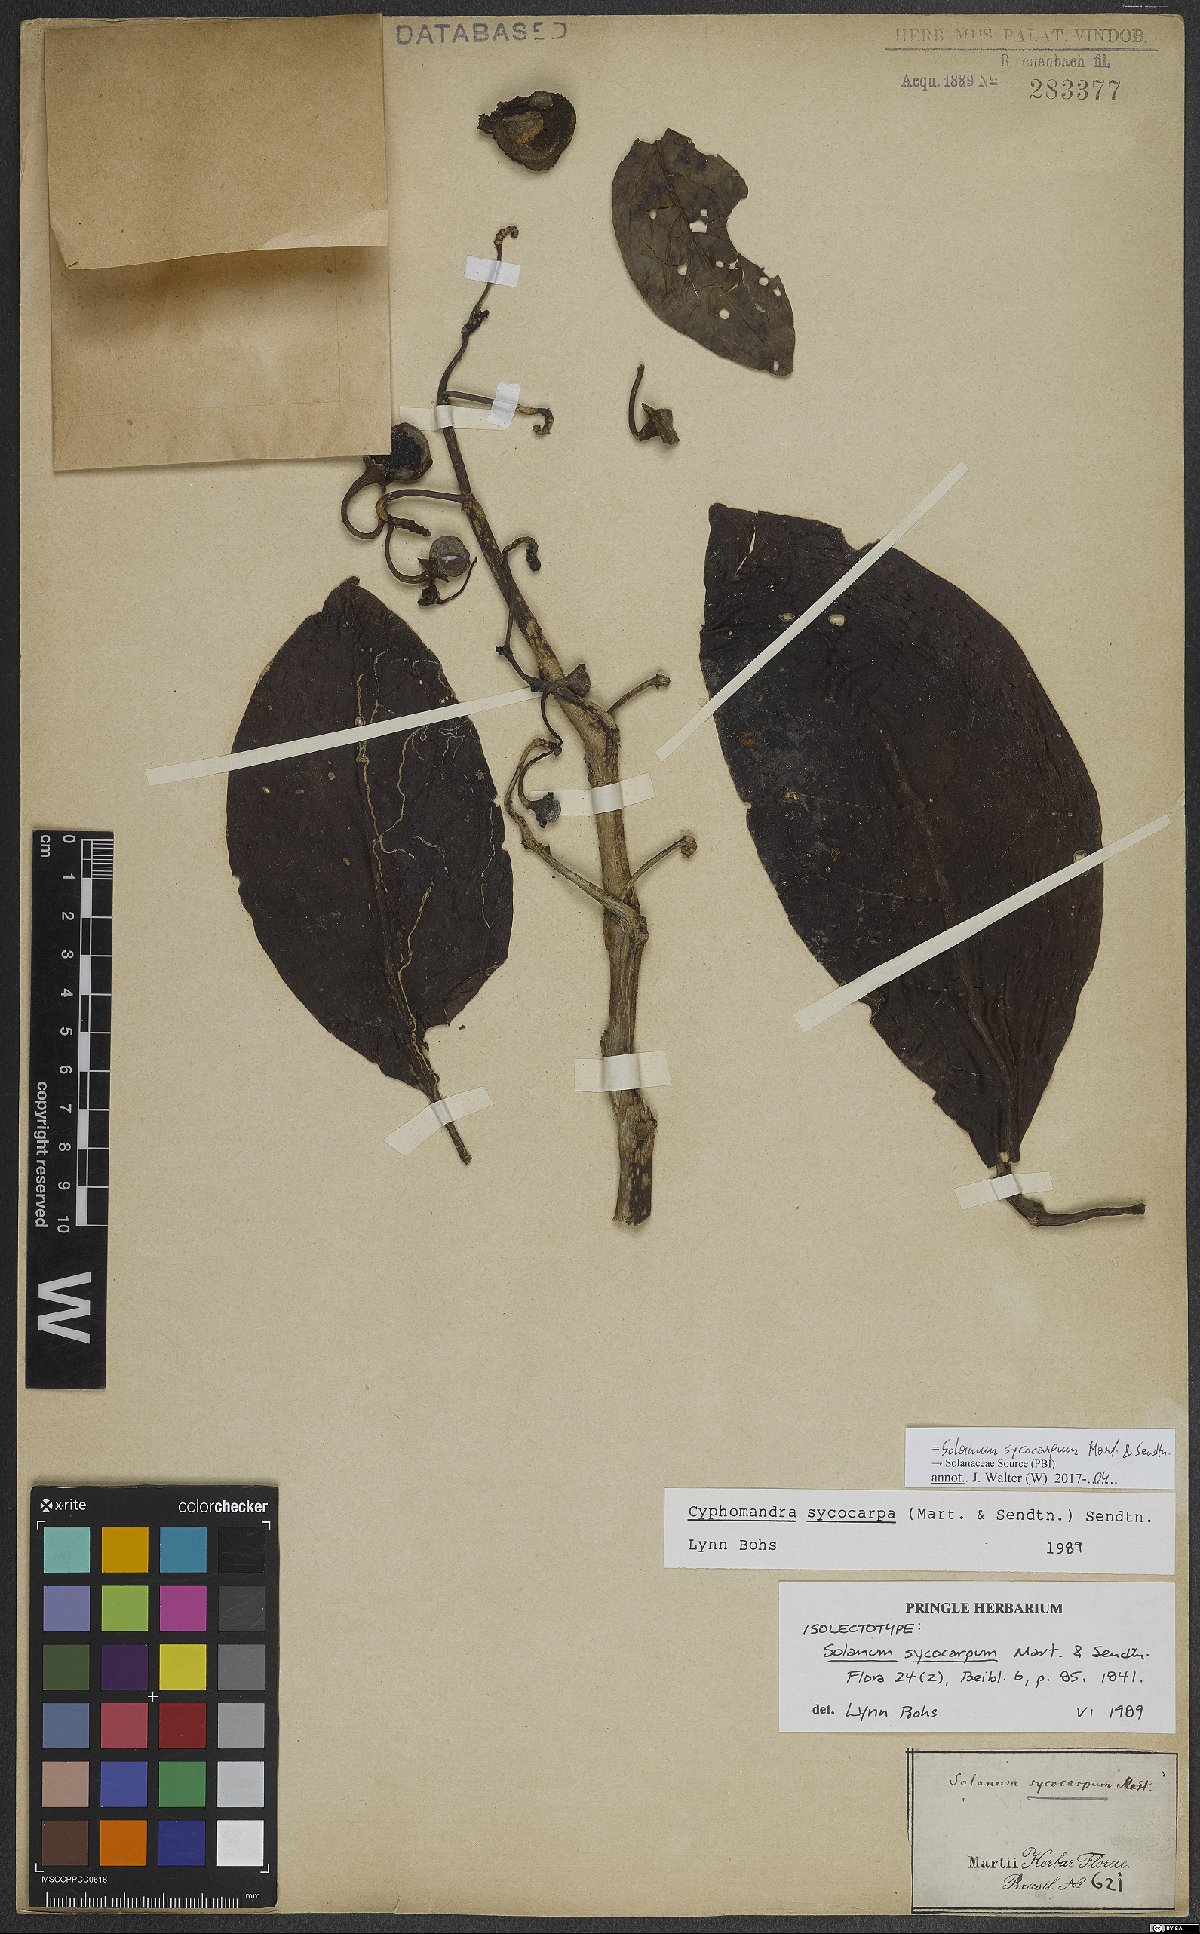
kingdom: Plantae
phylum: Tracheophyta
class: Magnoliopsida
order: Solanales
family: Solanaceae
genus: Solanum
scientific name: Solanum sycocarpum
